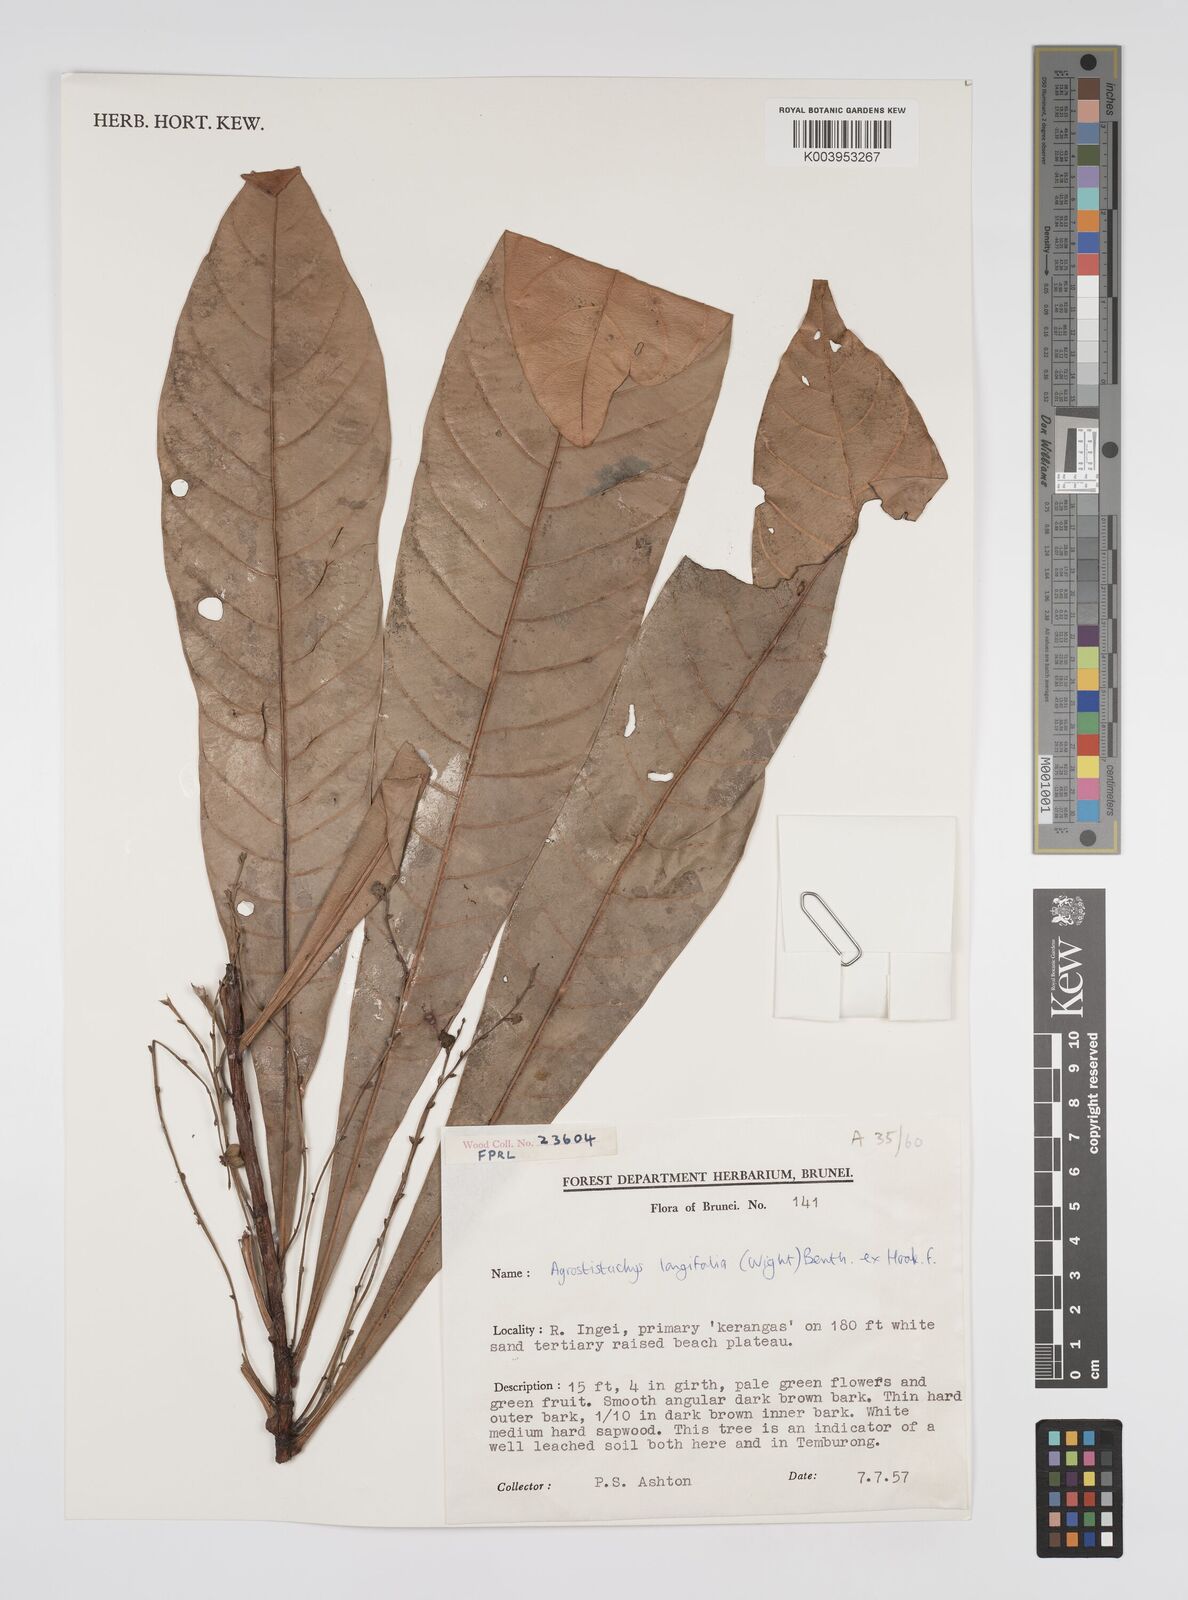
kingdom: Plantae
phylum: Tracheophyta
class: Magnoliopsida
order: Malpighiales
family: Euphorbiaceae
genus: Agrostistachys
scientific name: Agrostistachys borneensis
